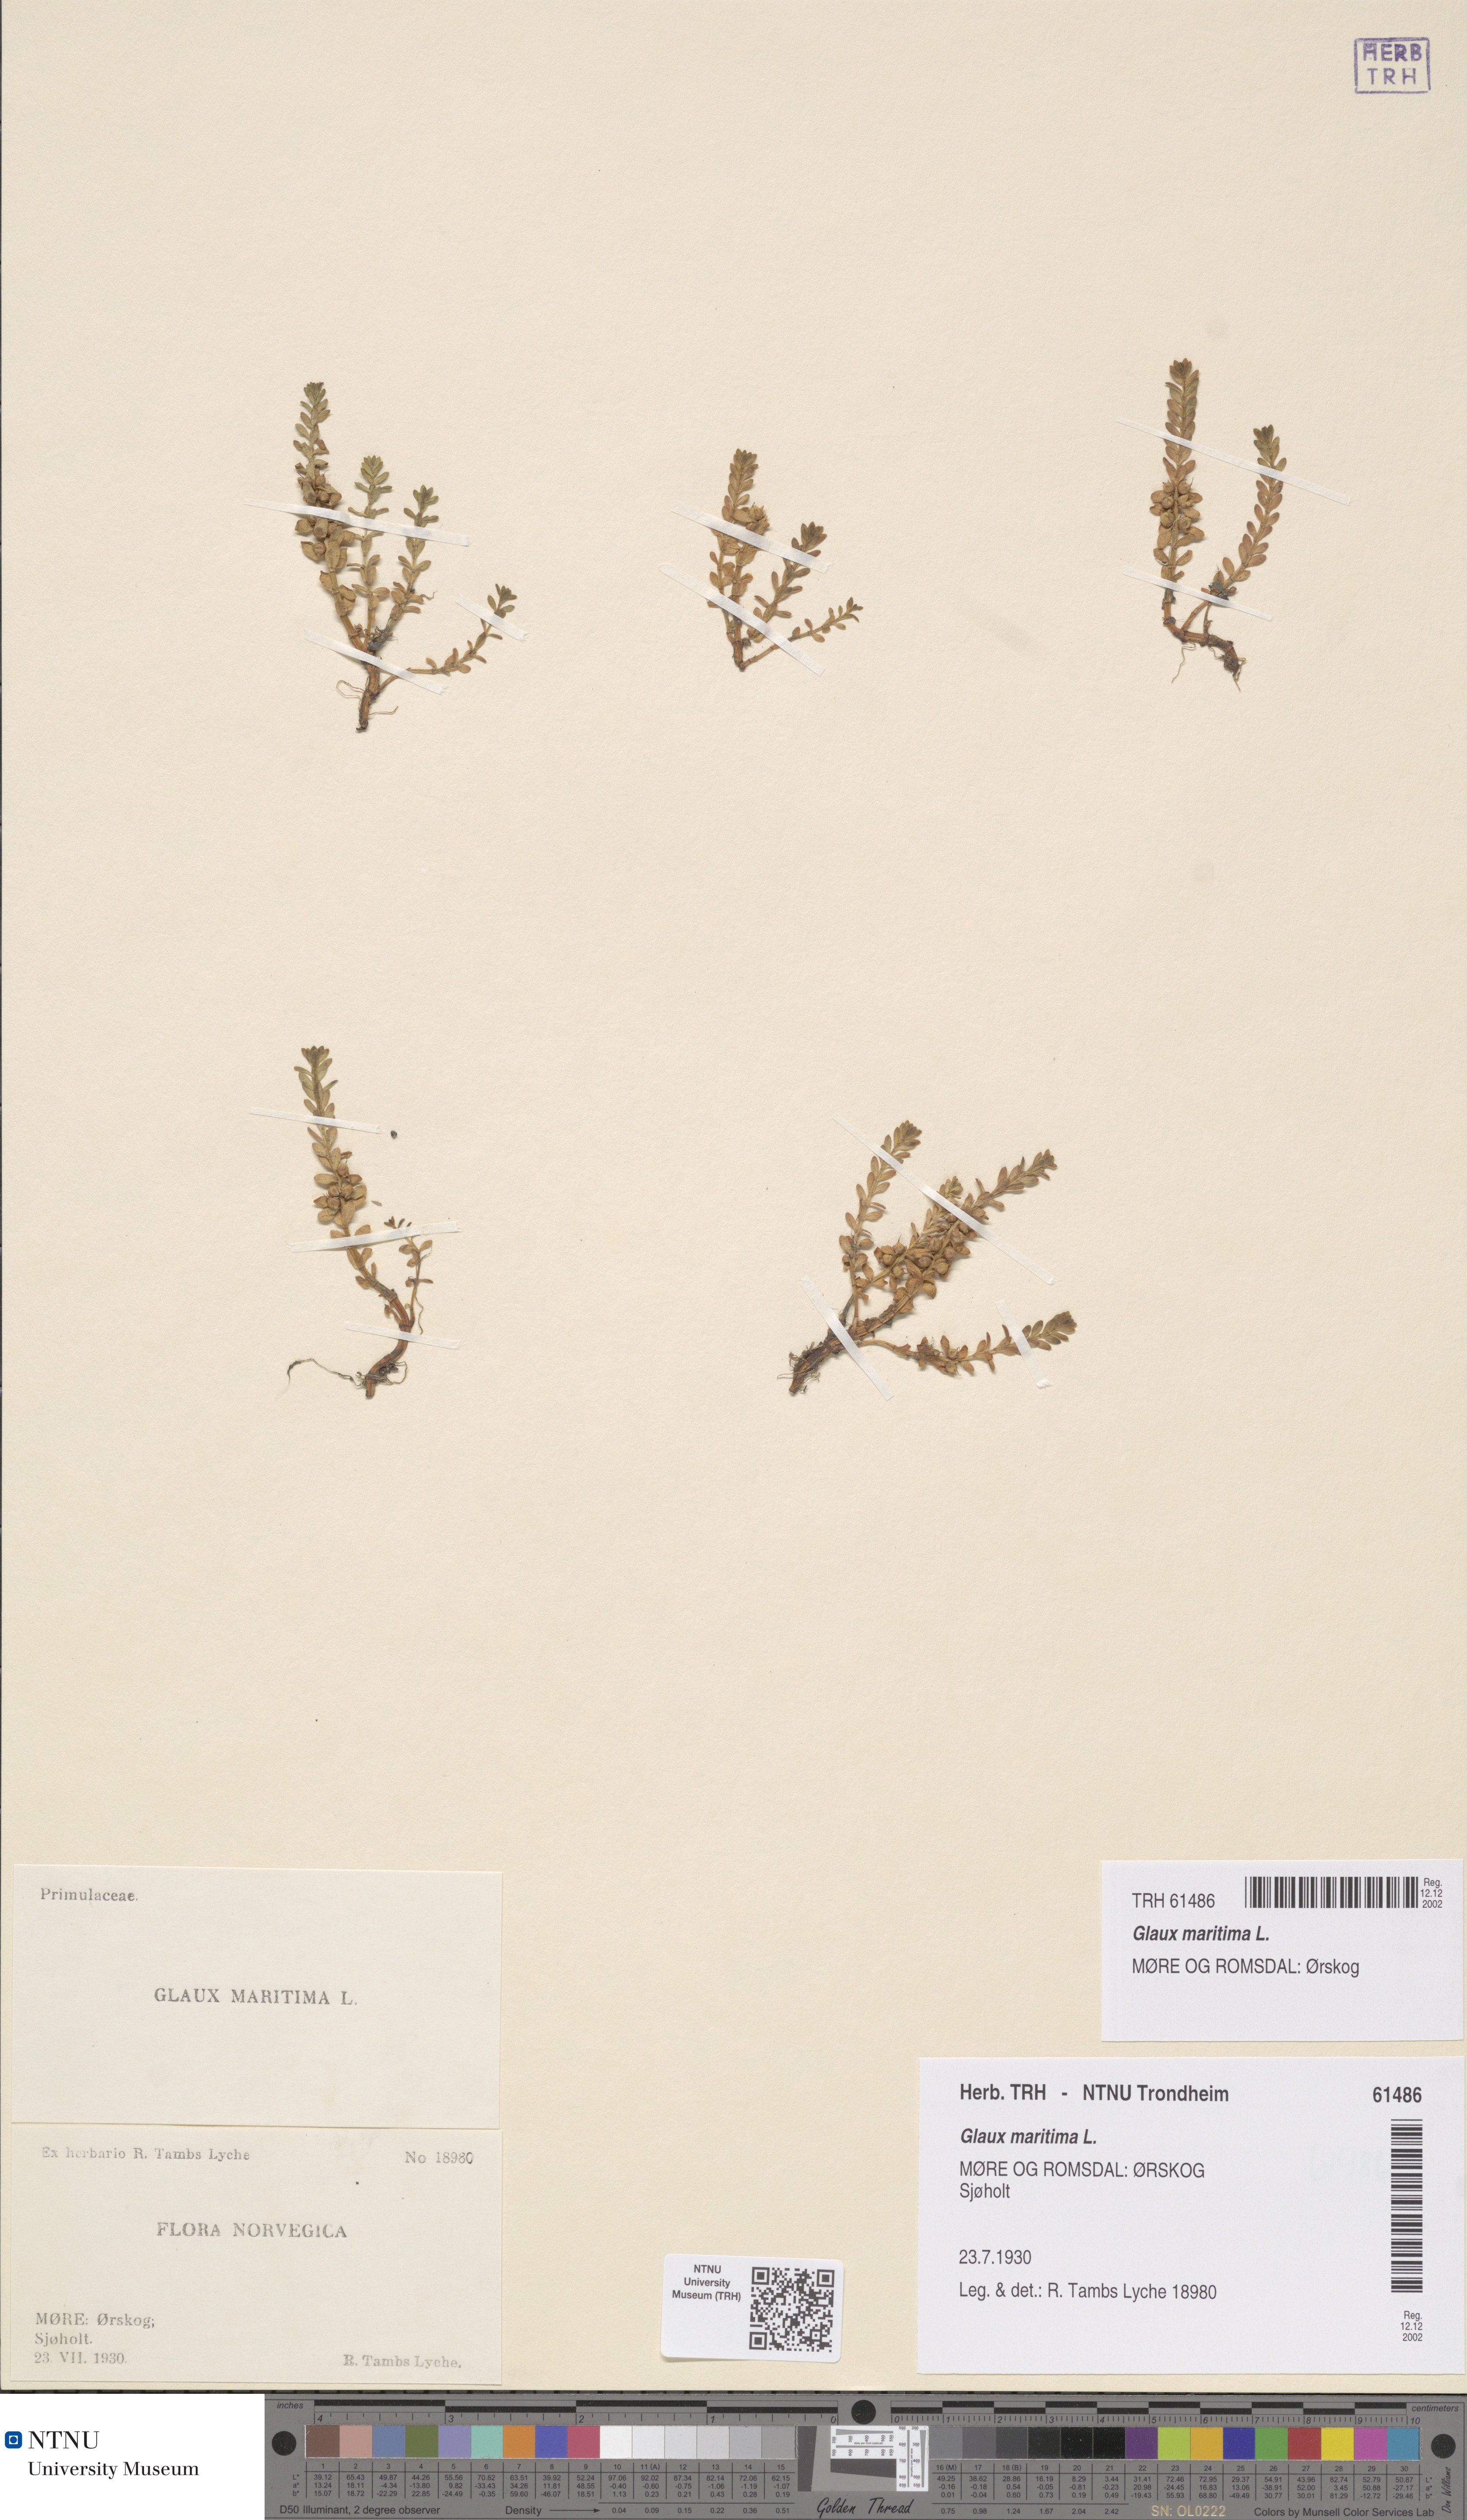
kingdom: Plantae
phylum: Tracheophyta
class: Magnoliopsida
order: Ericales
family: Primulaceae
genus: Lysimachia
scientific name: Lysimachia maritima
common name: Sea milkwort
